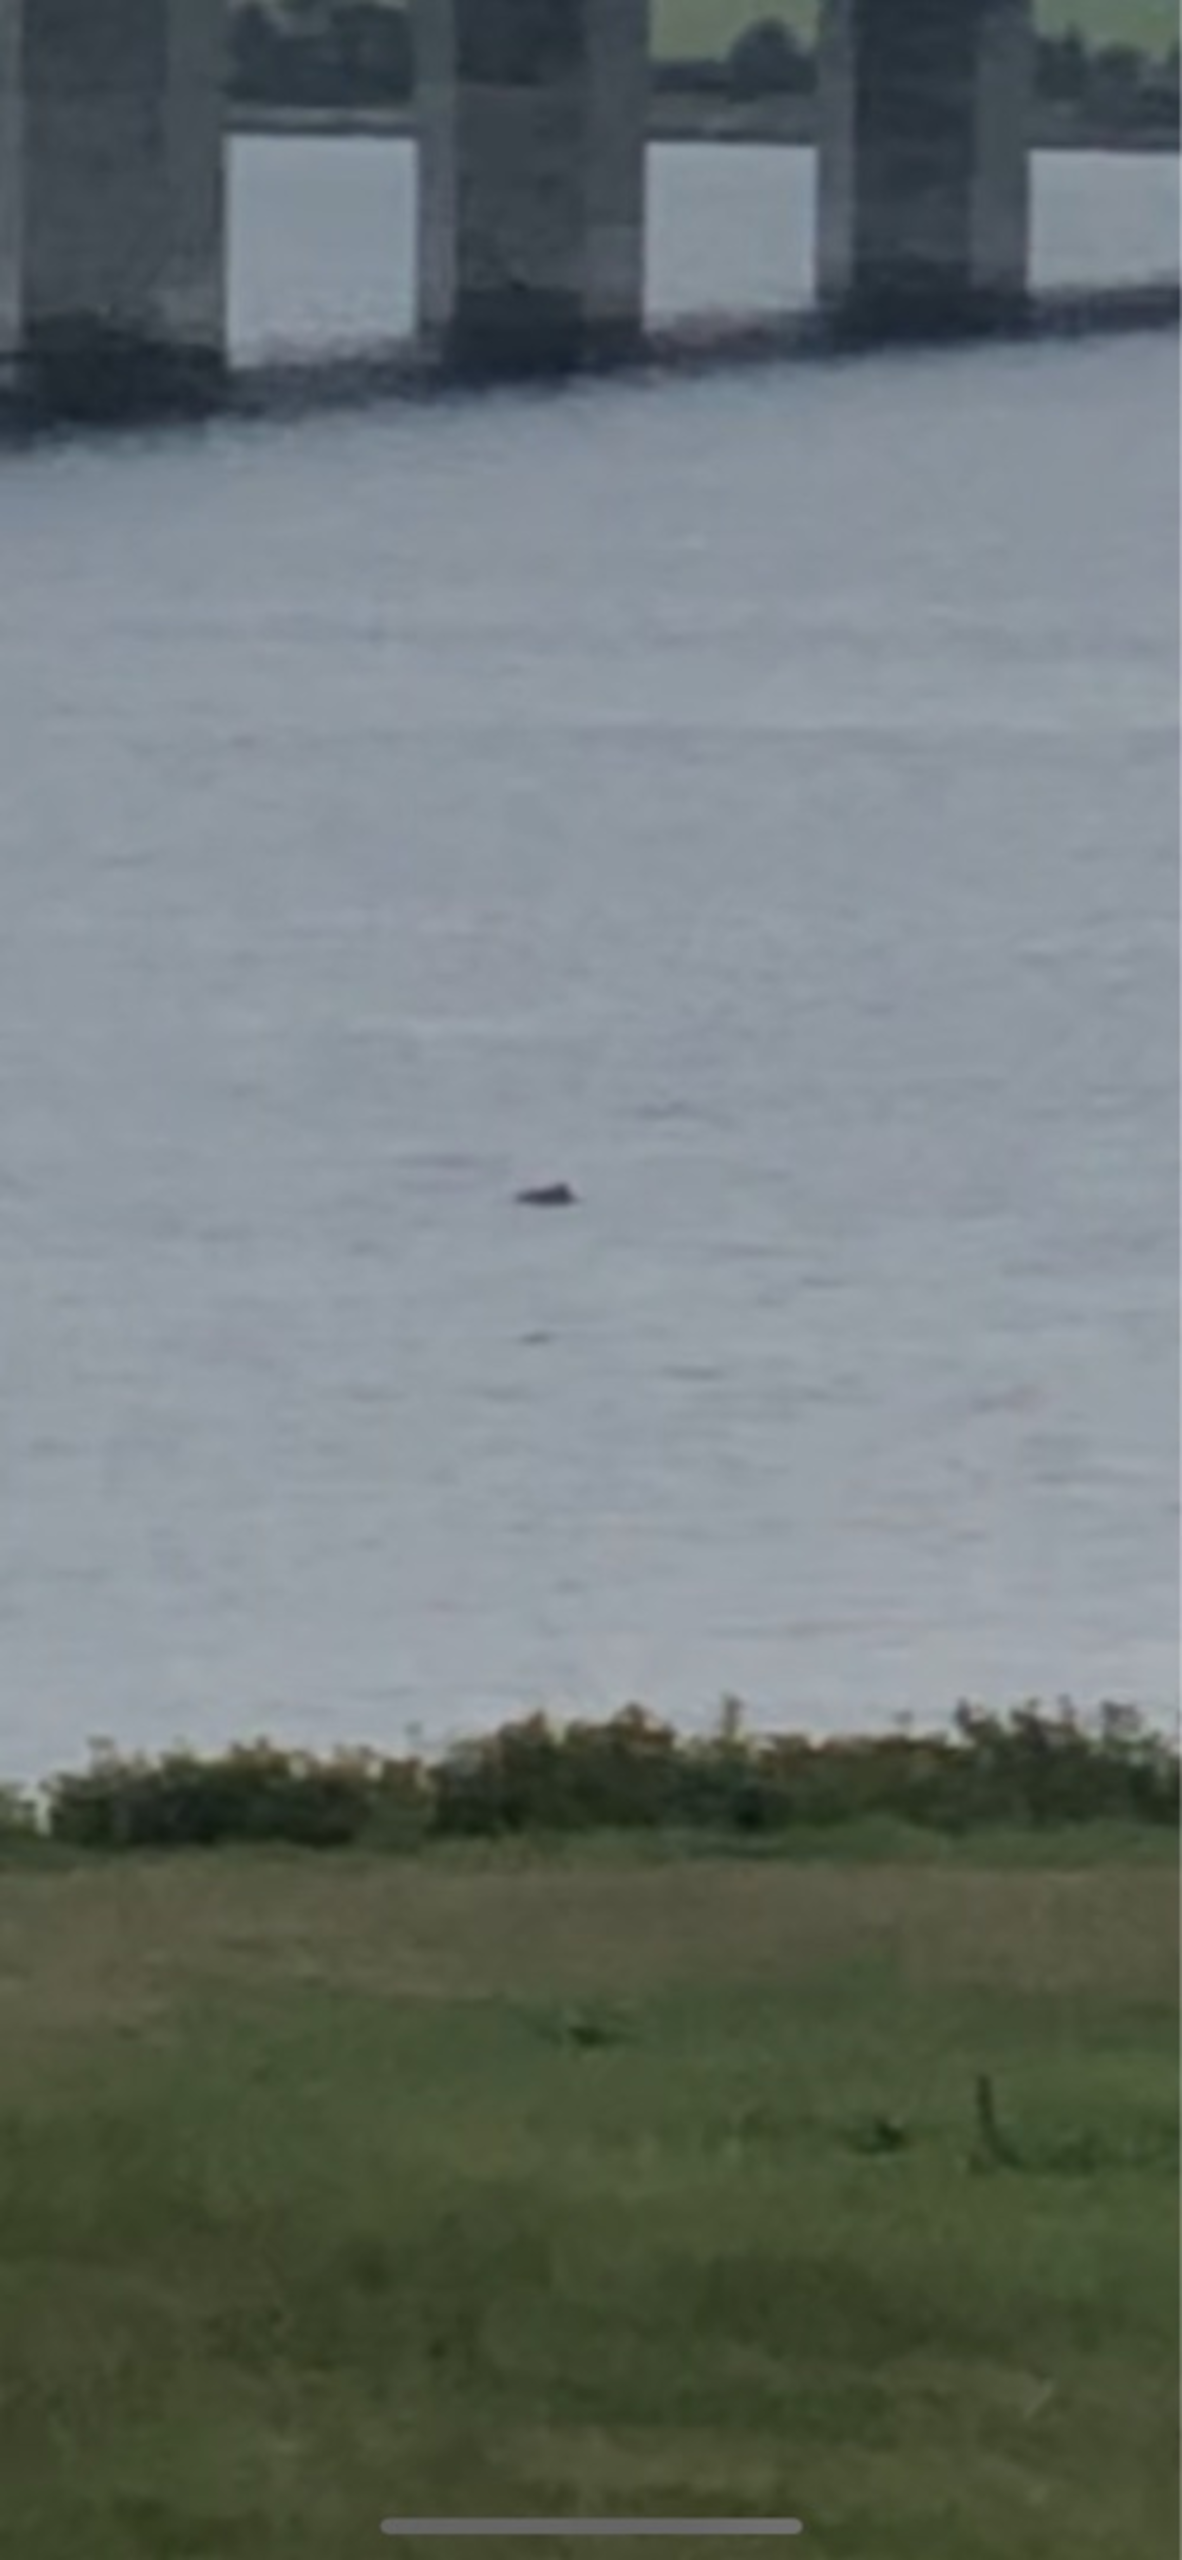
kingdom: Animalia
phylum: Chordata
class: Mammalia
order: Cetacea
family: Phocoenidae
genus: Phocoena
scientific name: Phocoena phocoena
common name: Marsvin
